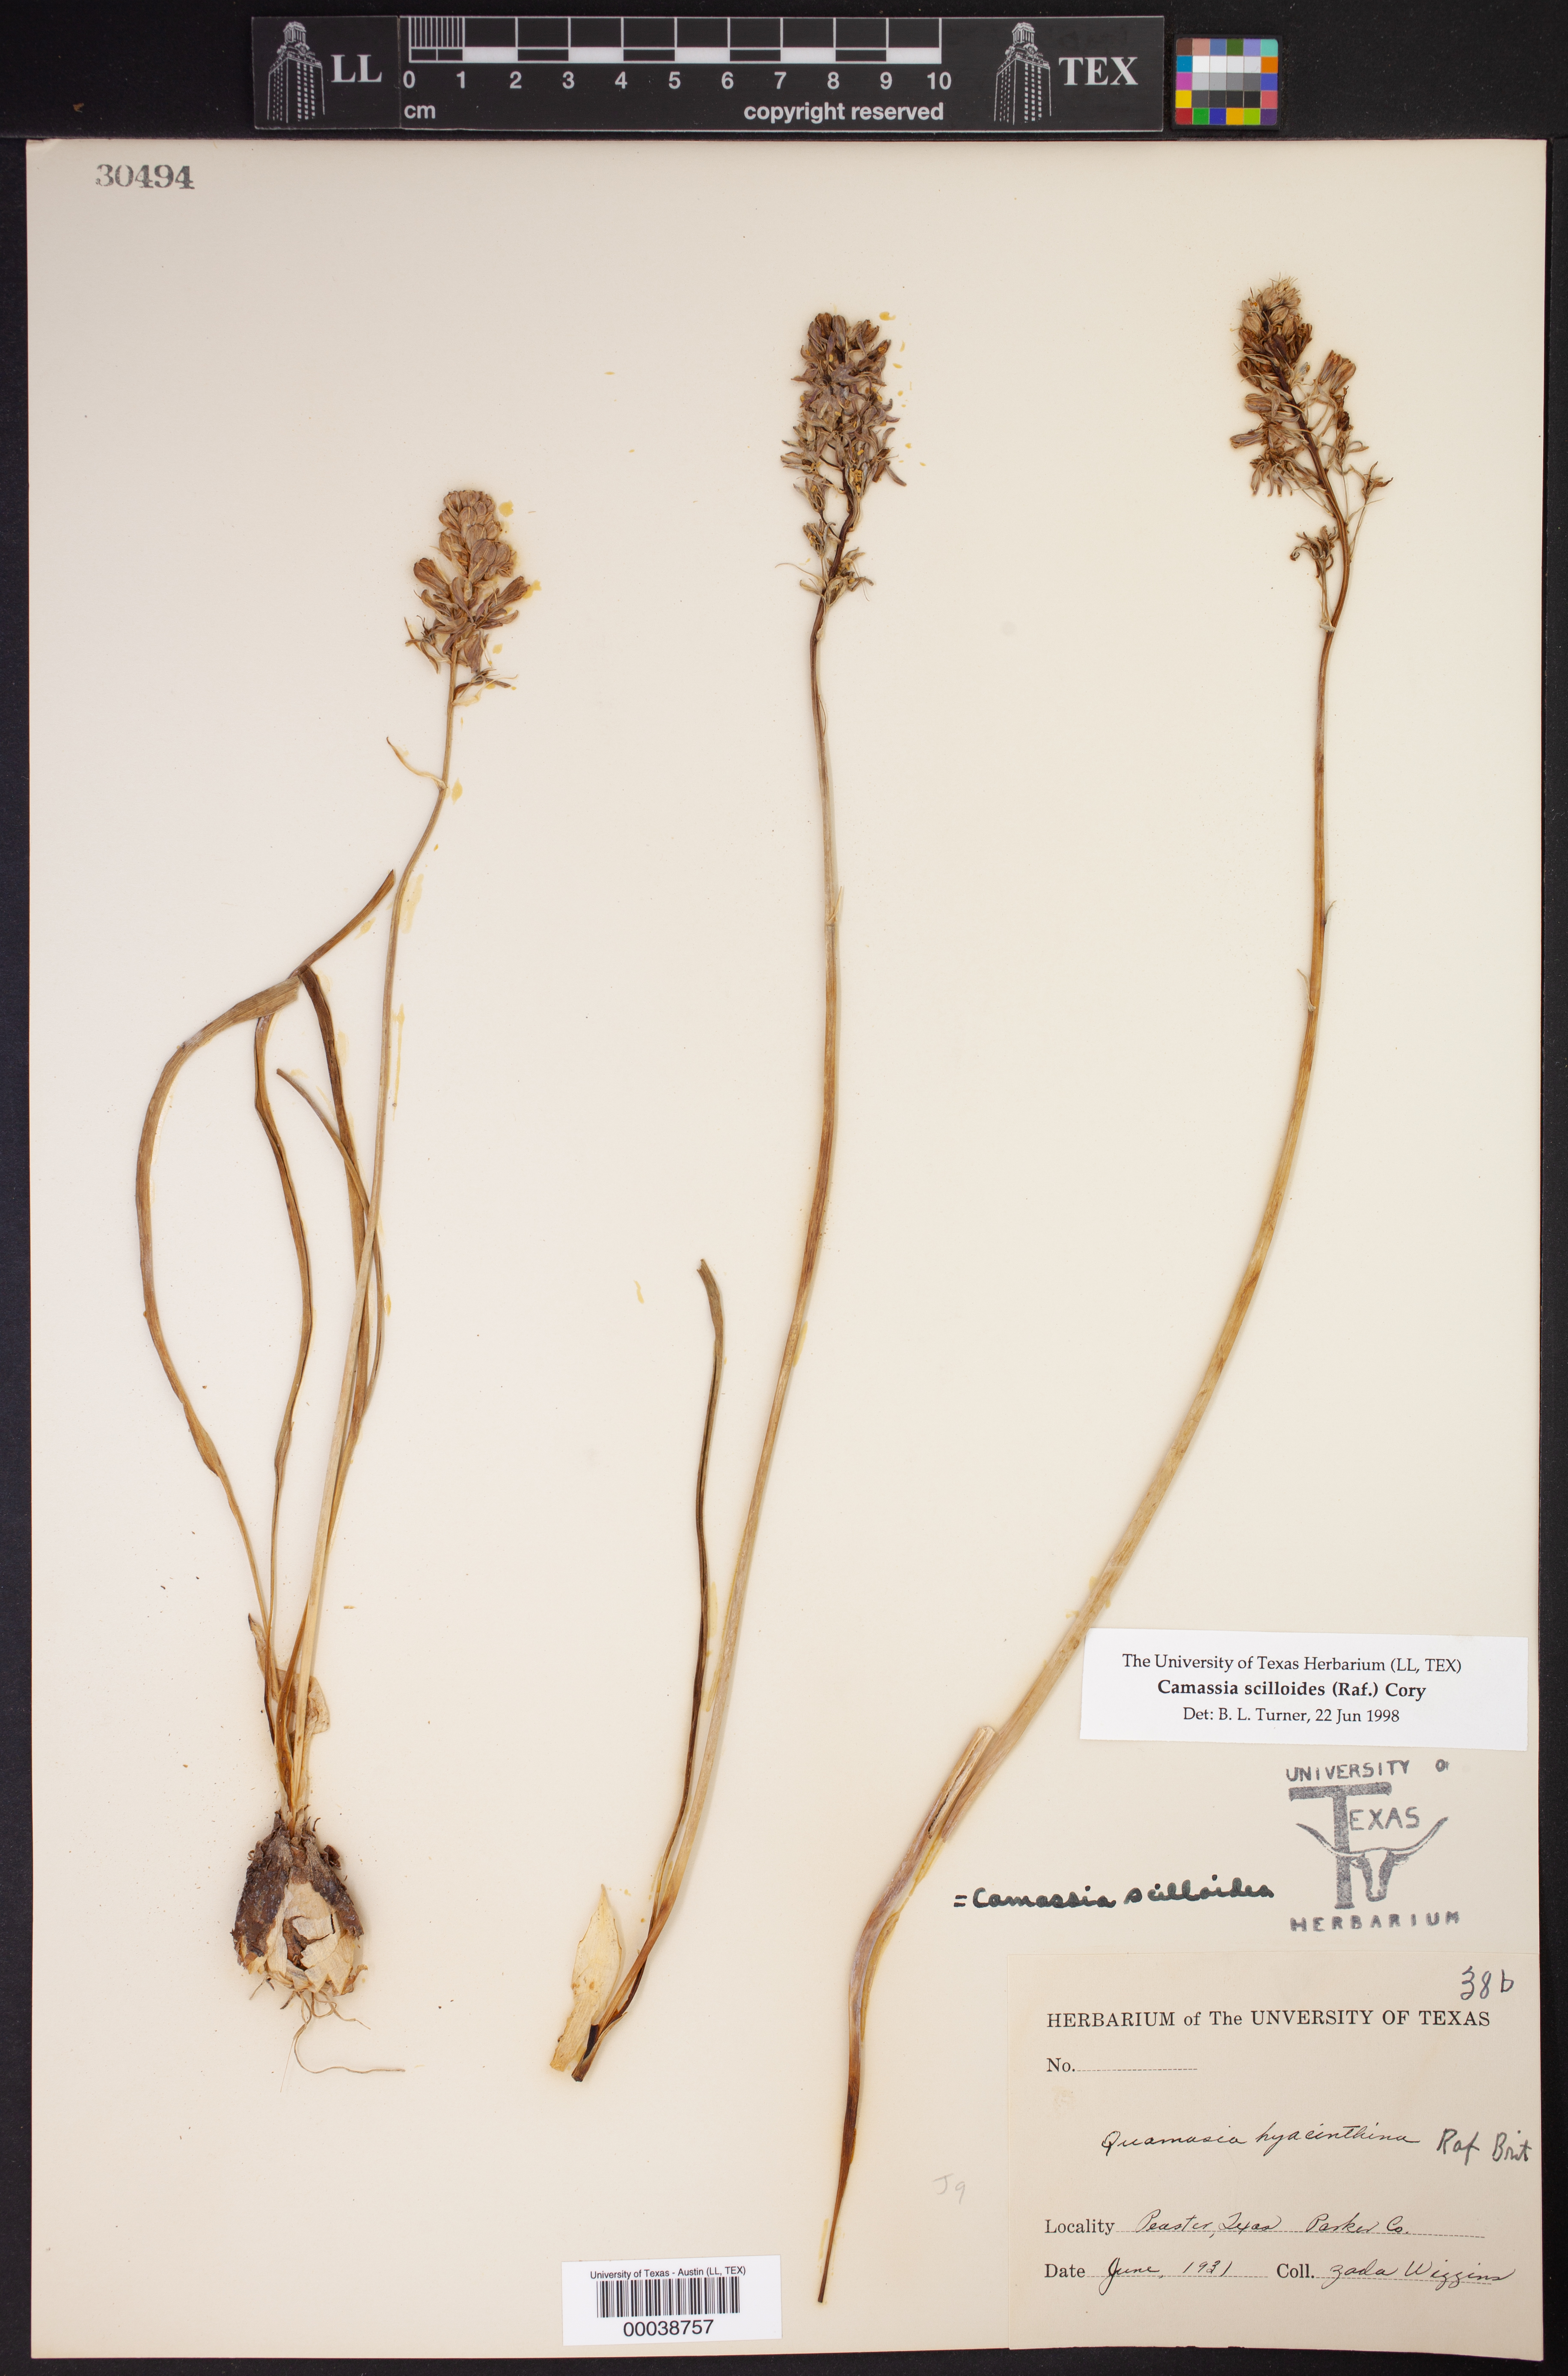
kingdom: Plantae
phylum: Tracheophyta
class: Liliopsida
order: Asparagales
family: Asparagaceae
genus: Camassia
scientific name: Camassia scilloides
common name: Wild hyacinth
